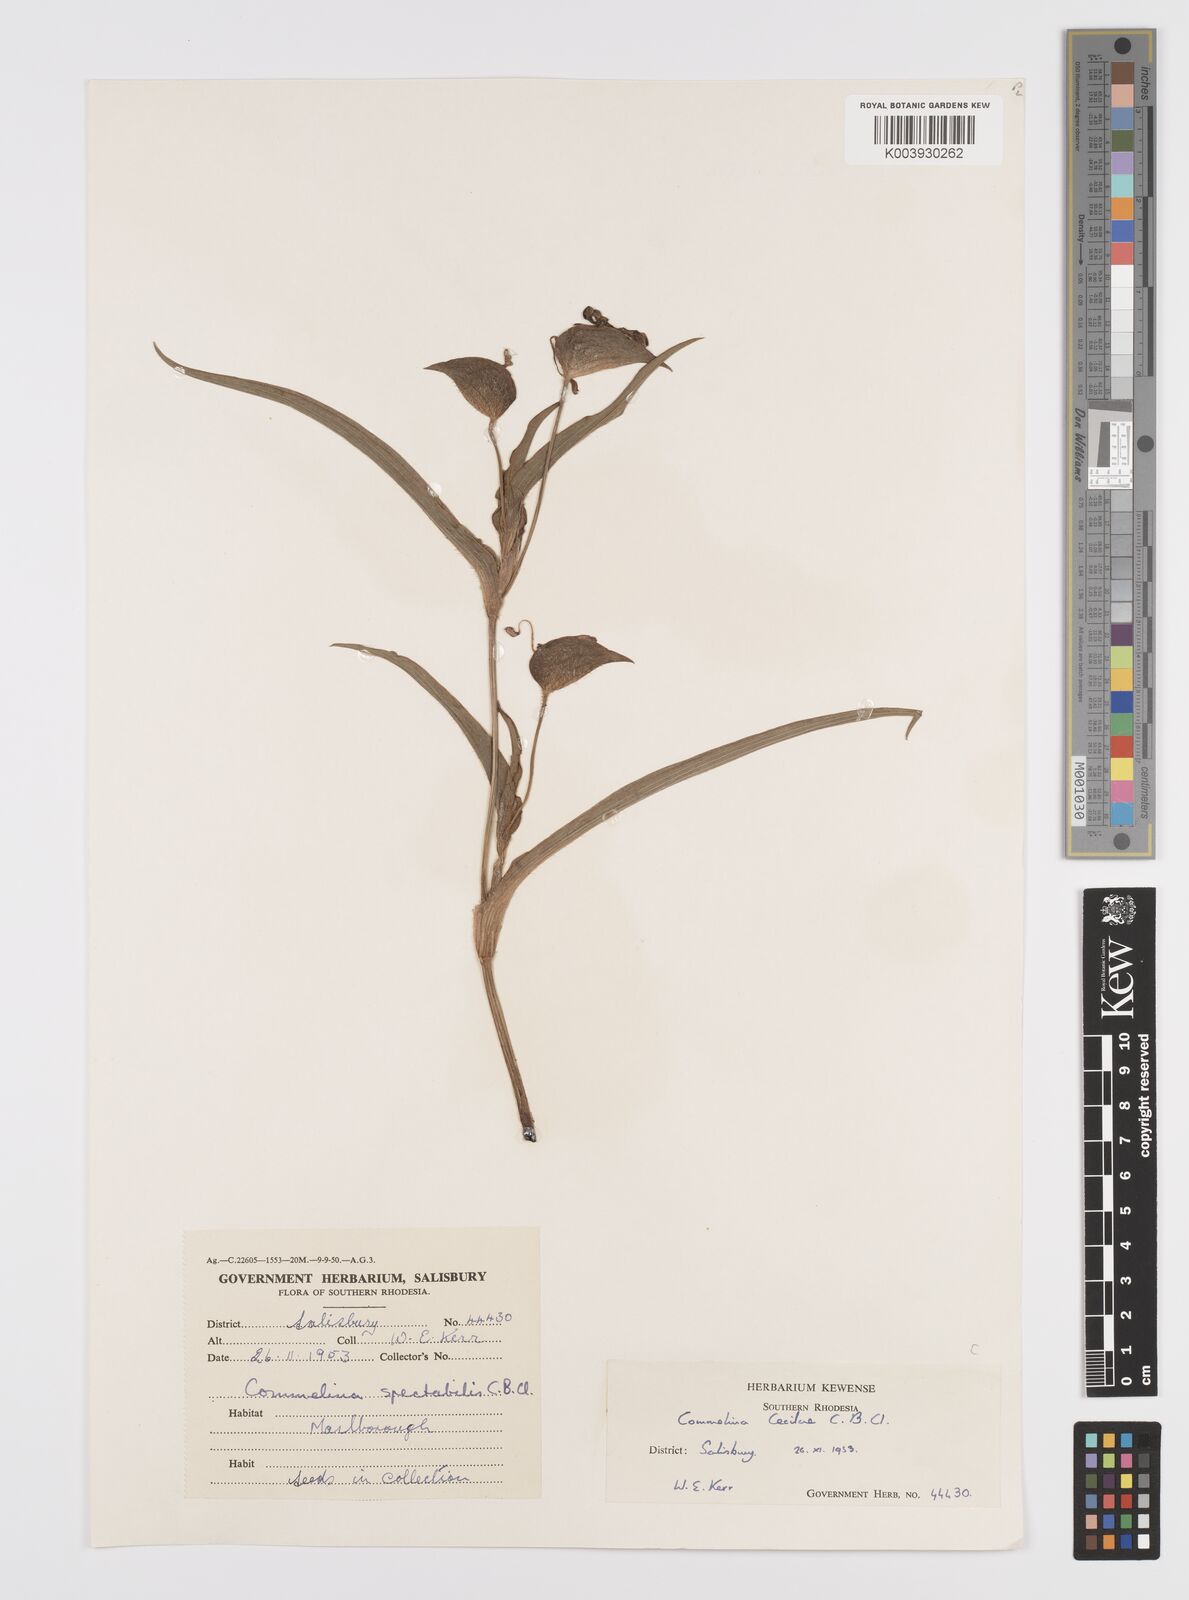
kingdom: Plantae
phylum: Tracheophyta
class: Liliopsida
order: Commelinales
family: Commelinaceae
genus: Commelina
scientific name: Commelina schweinfurthii
